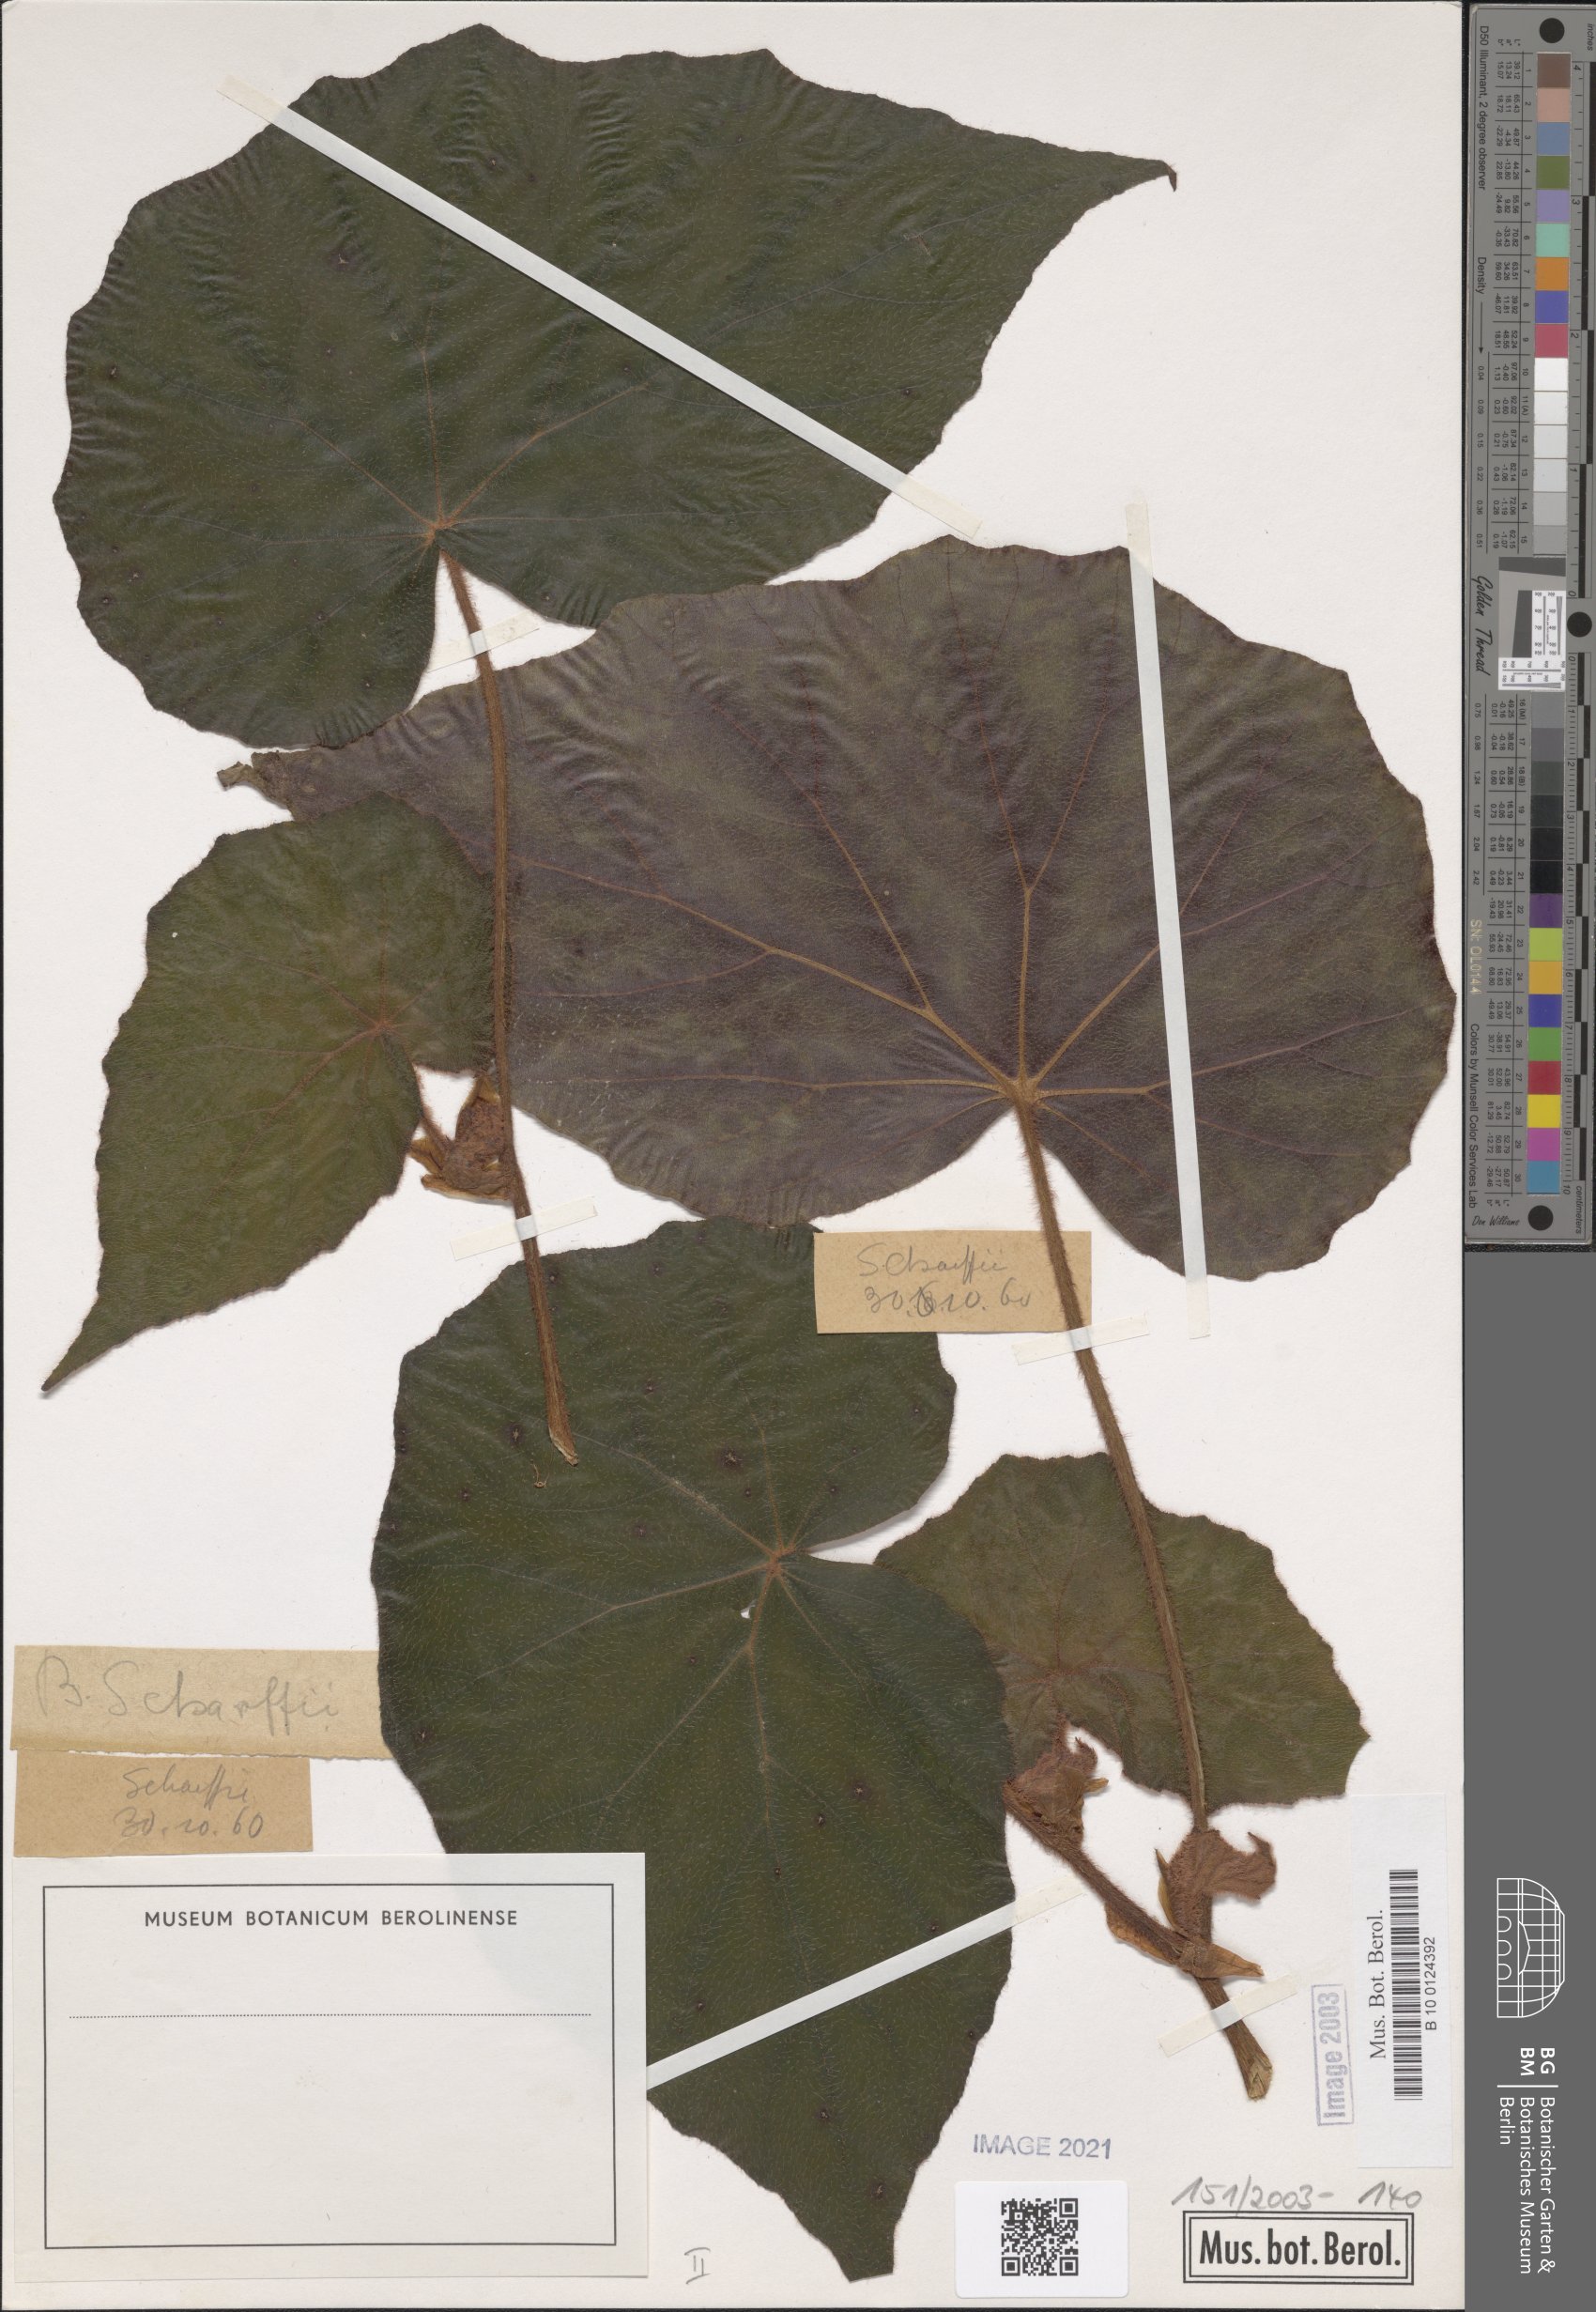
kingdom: Plantae
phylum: Tracheophyta
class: Magnoliopsida
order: Cucurbitales
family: Begoniaceae
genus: Begonia
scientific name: Begonia scharffiana
